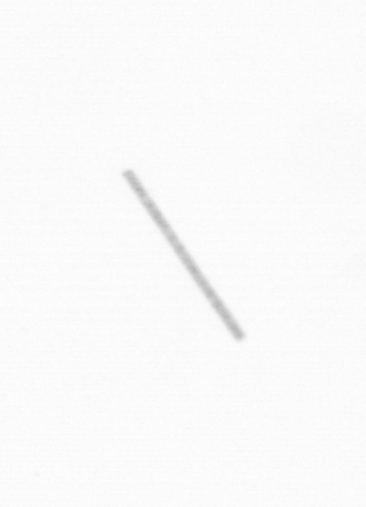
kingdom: Chromista
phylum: Ochrophyta
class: Bacillariophyceae
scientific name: Bacillariophyceae
